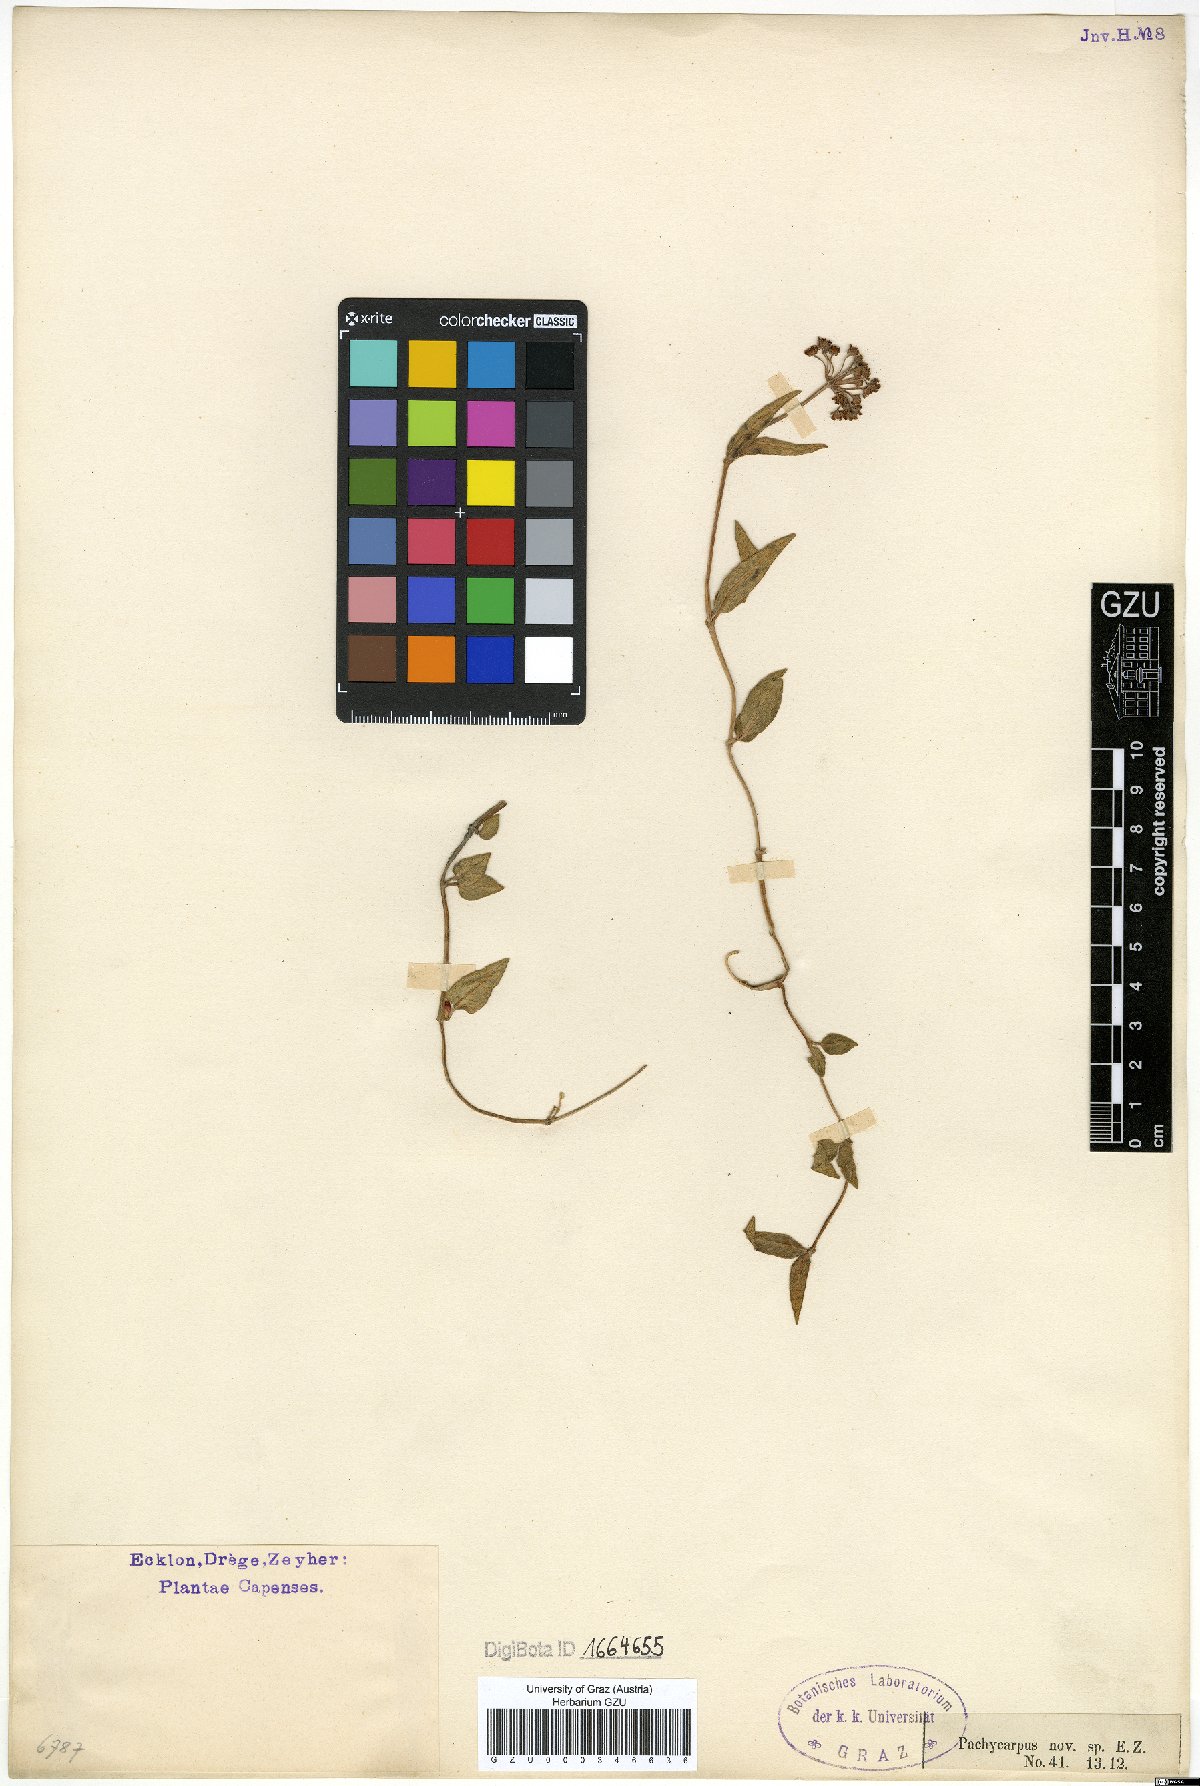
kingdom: Plantae
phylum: Tracheophyta
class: Magnoliopsida
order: Gentianales
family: Apocynaceae
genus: Pachycarpus
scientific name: Pachycarpus
